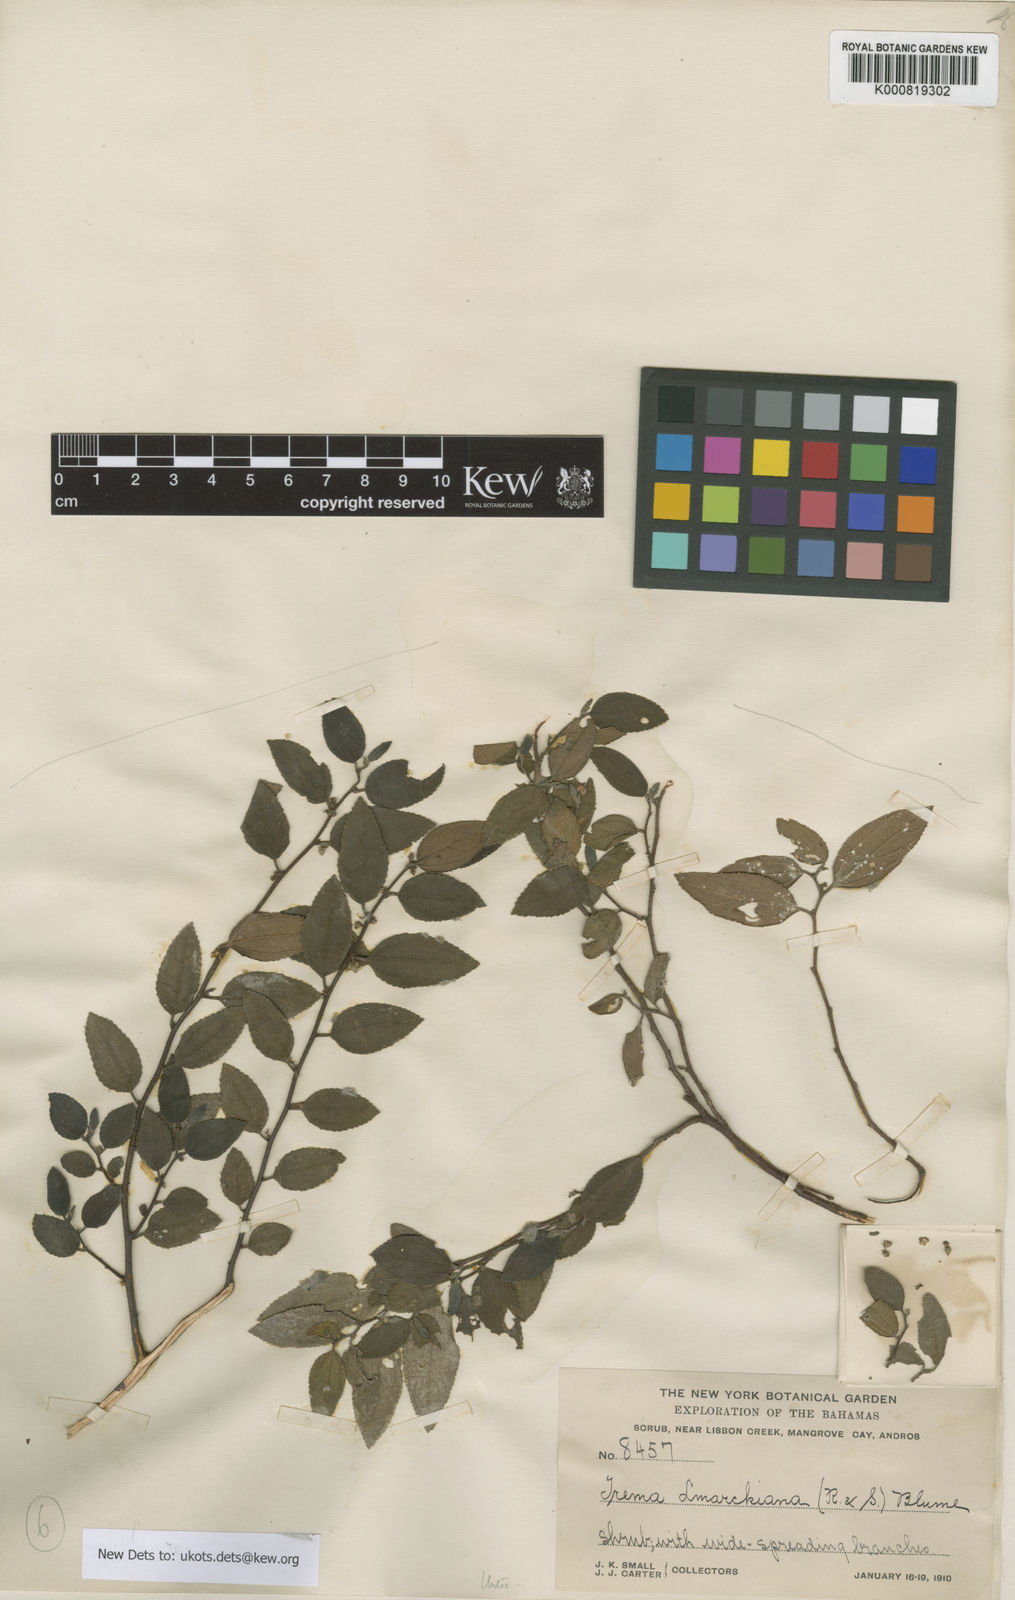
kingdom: Plantae
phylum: Tracheophyta
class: Magnoliopsida
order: Rosales
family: Cannabaceae
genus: Trema
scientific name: Trema lamarckianum
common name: Lamarck's trema
